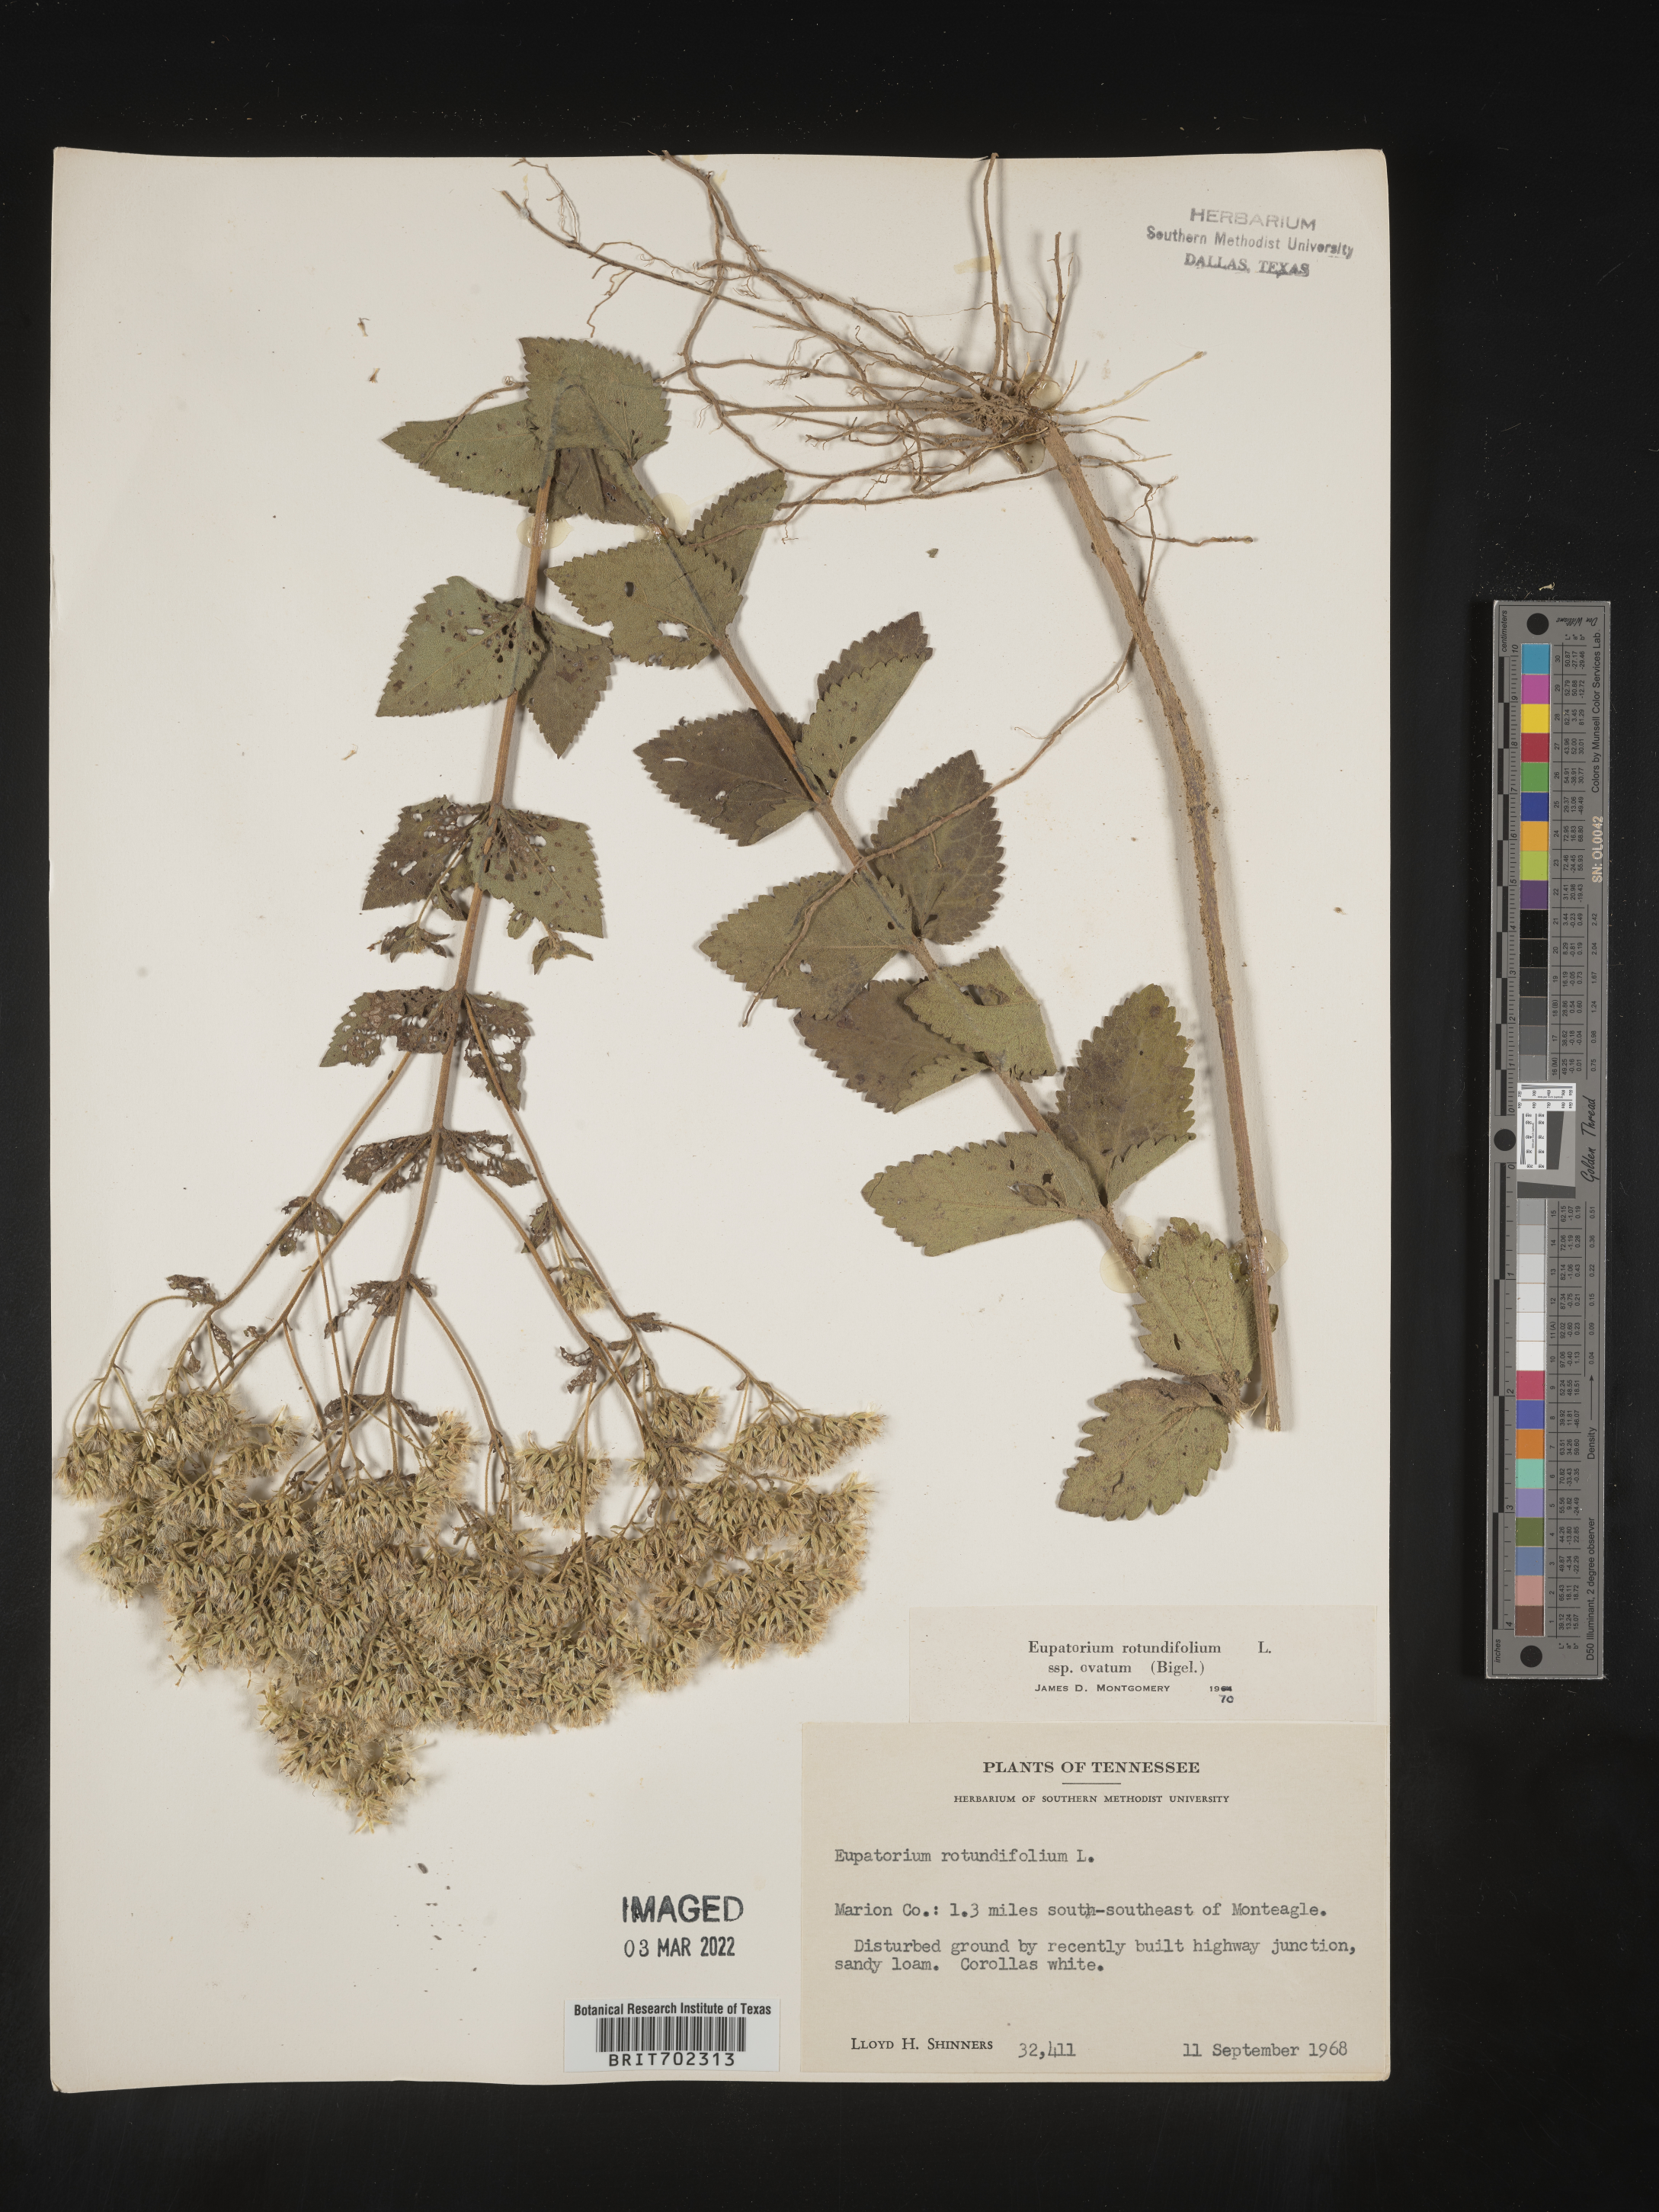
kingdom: Plantae
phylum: Tracheophyta
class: Magnoliopsida
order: Asterales
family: Asteraceae
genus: Eupatorium
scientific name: Eupatorium rotundifolium
